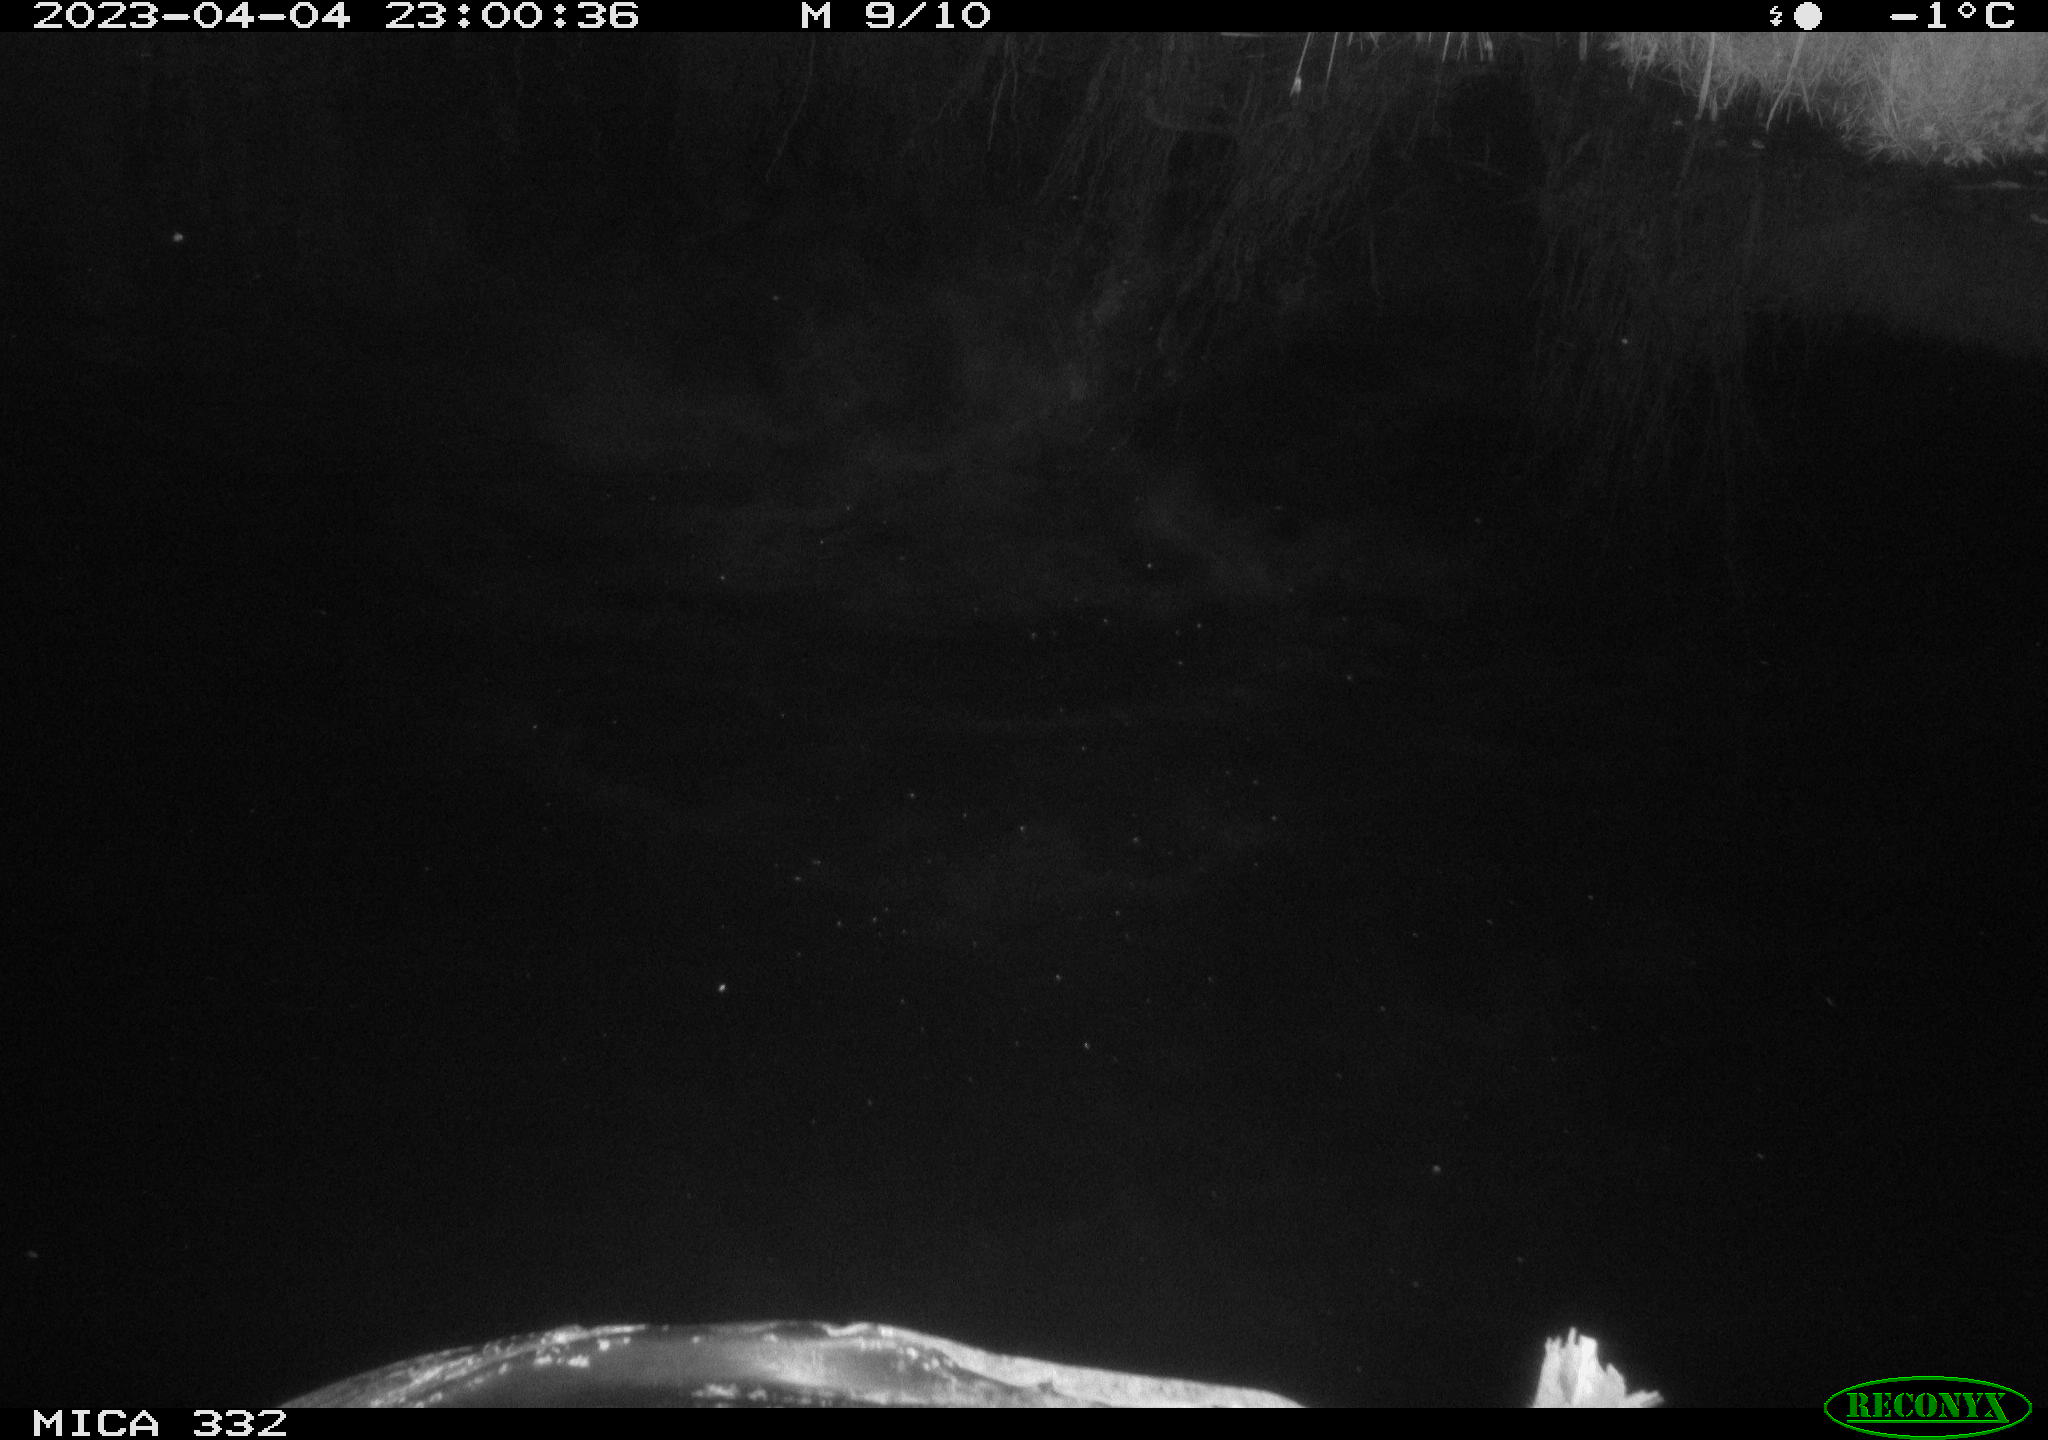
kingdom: Animalia
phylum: Chordata
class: Aves
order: Anseriformes
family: Anatidae
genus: Cygnus
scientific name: Cygnus olor
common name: Mute swan
